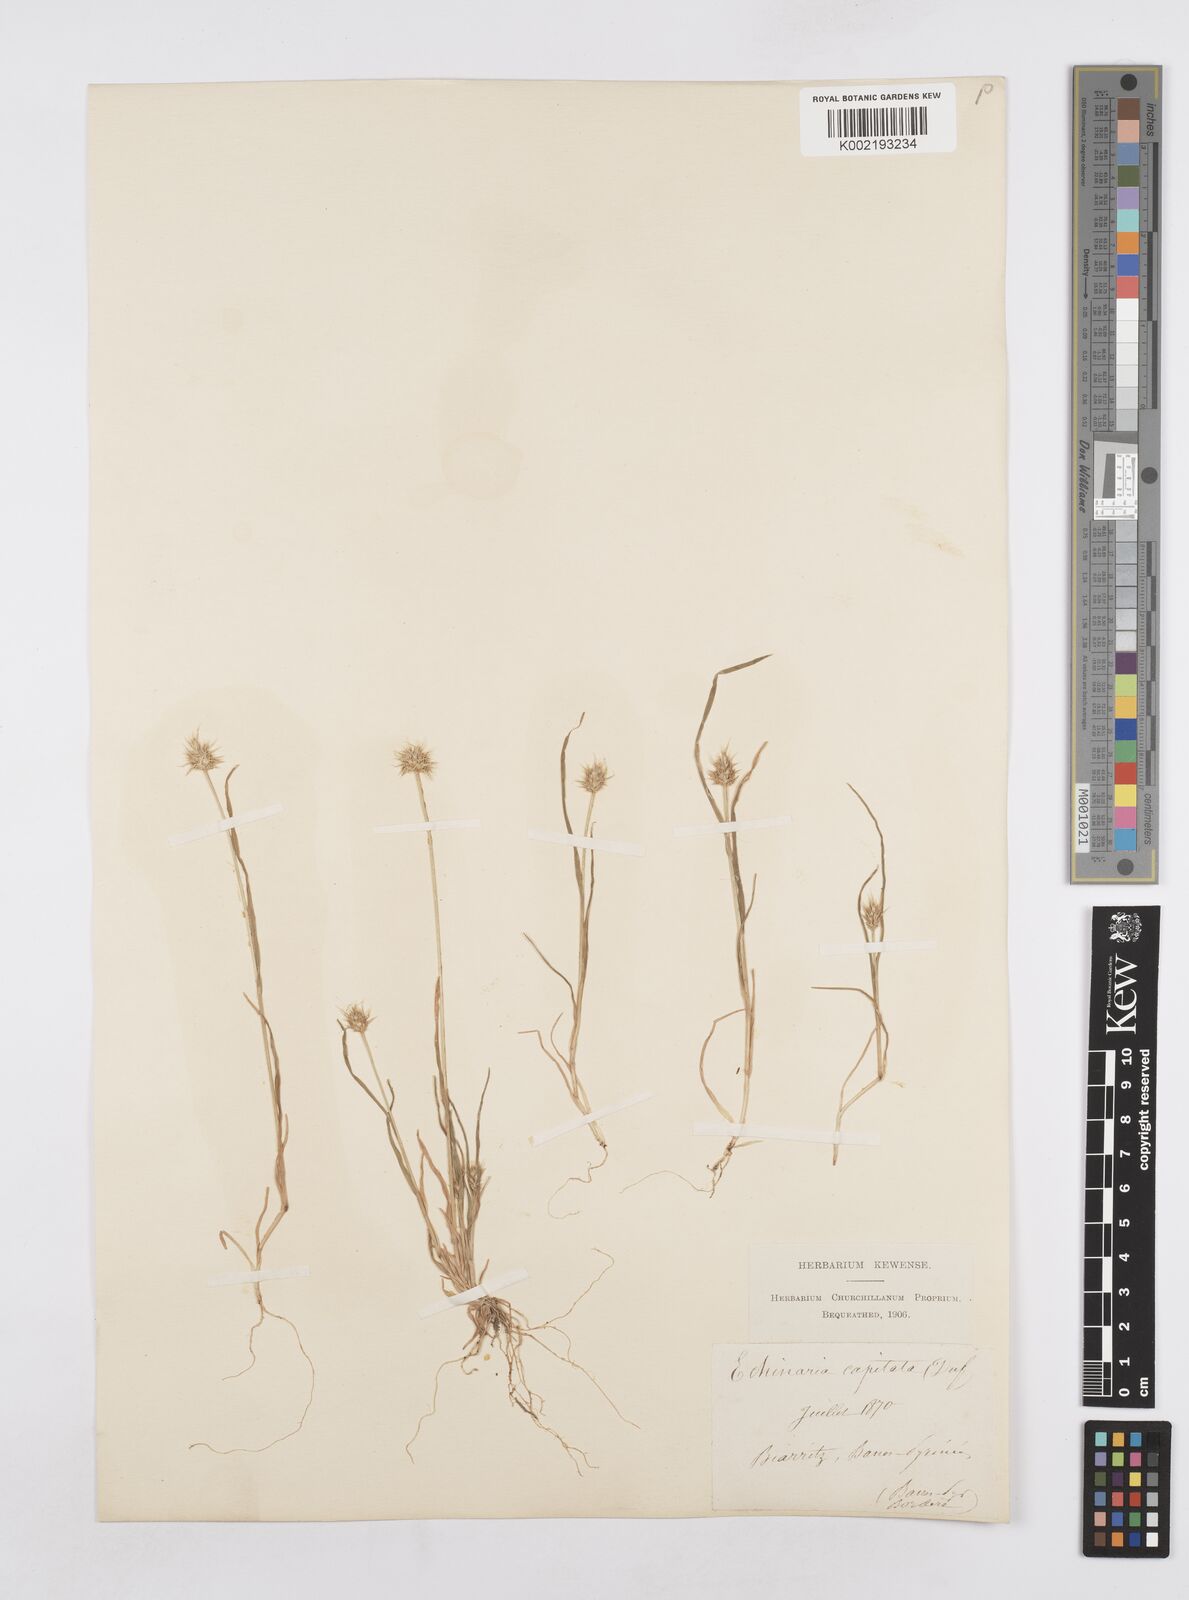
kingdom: Plantae
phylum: Tracheophyta
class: Liliopsida
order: Poales
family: Poaceae
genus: Echinaria
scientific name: Echinaria capitata
